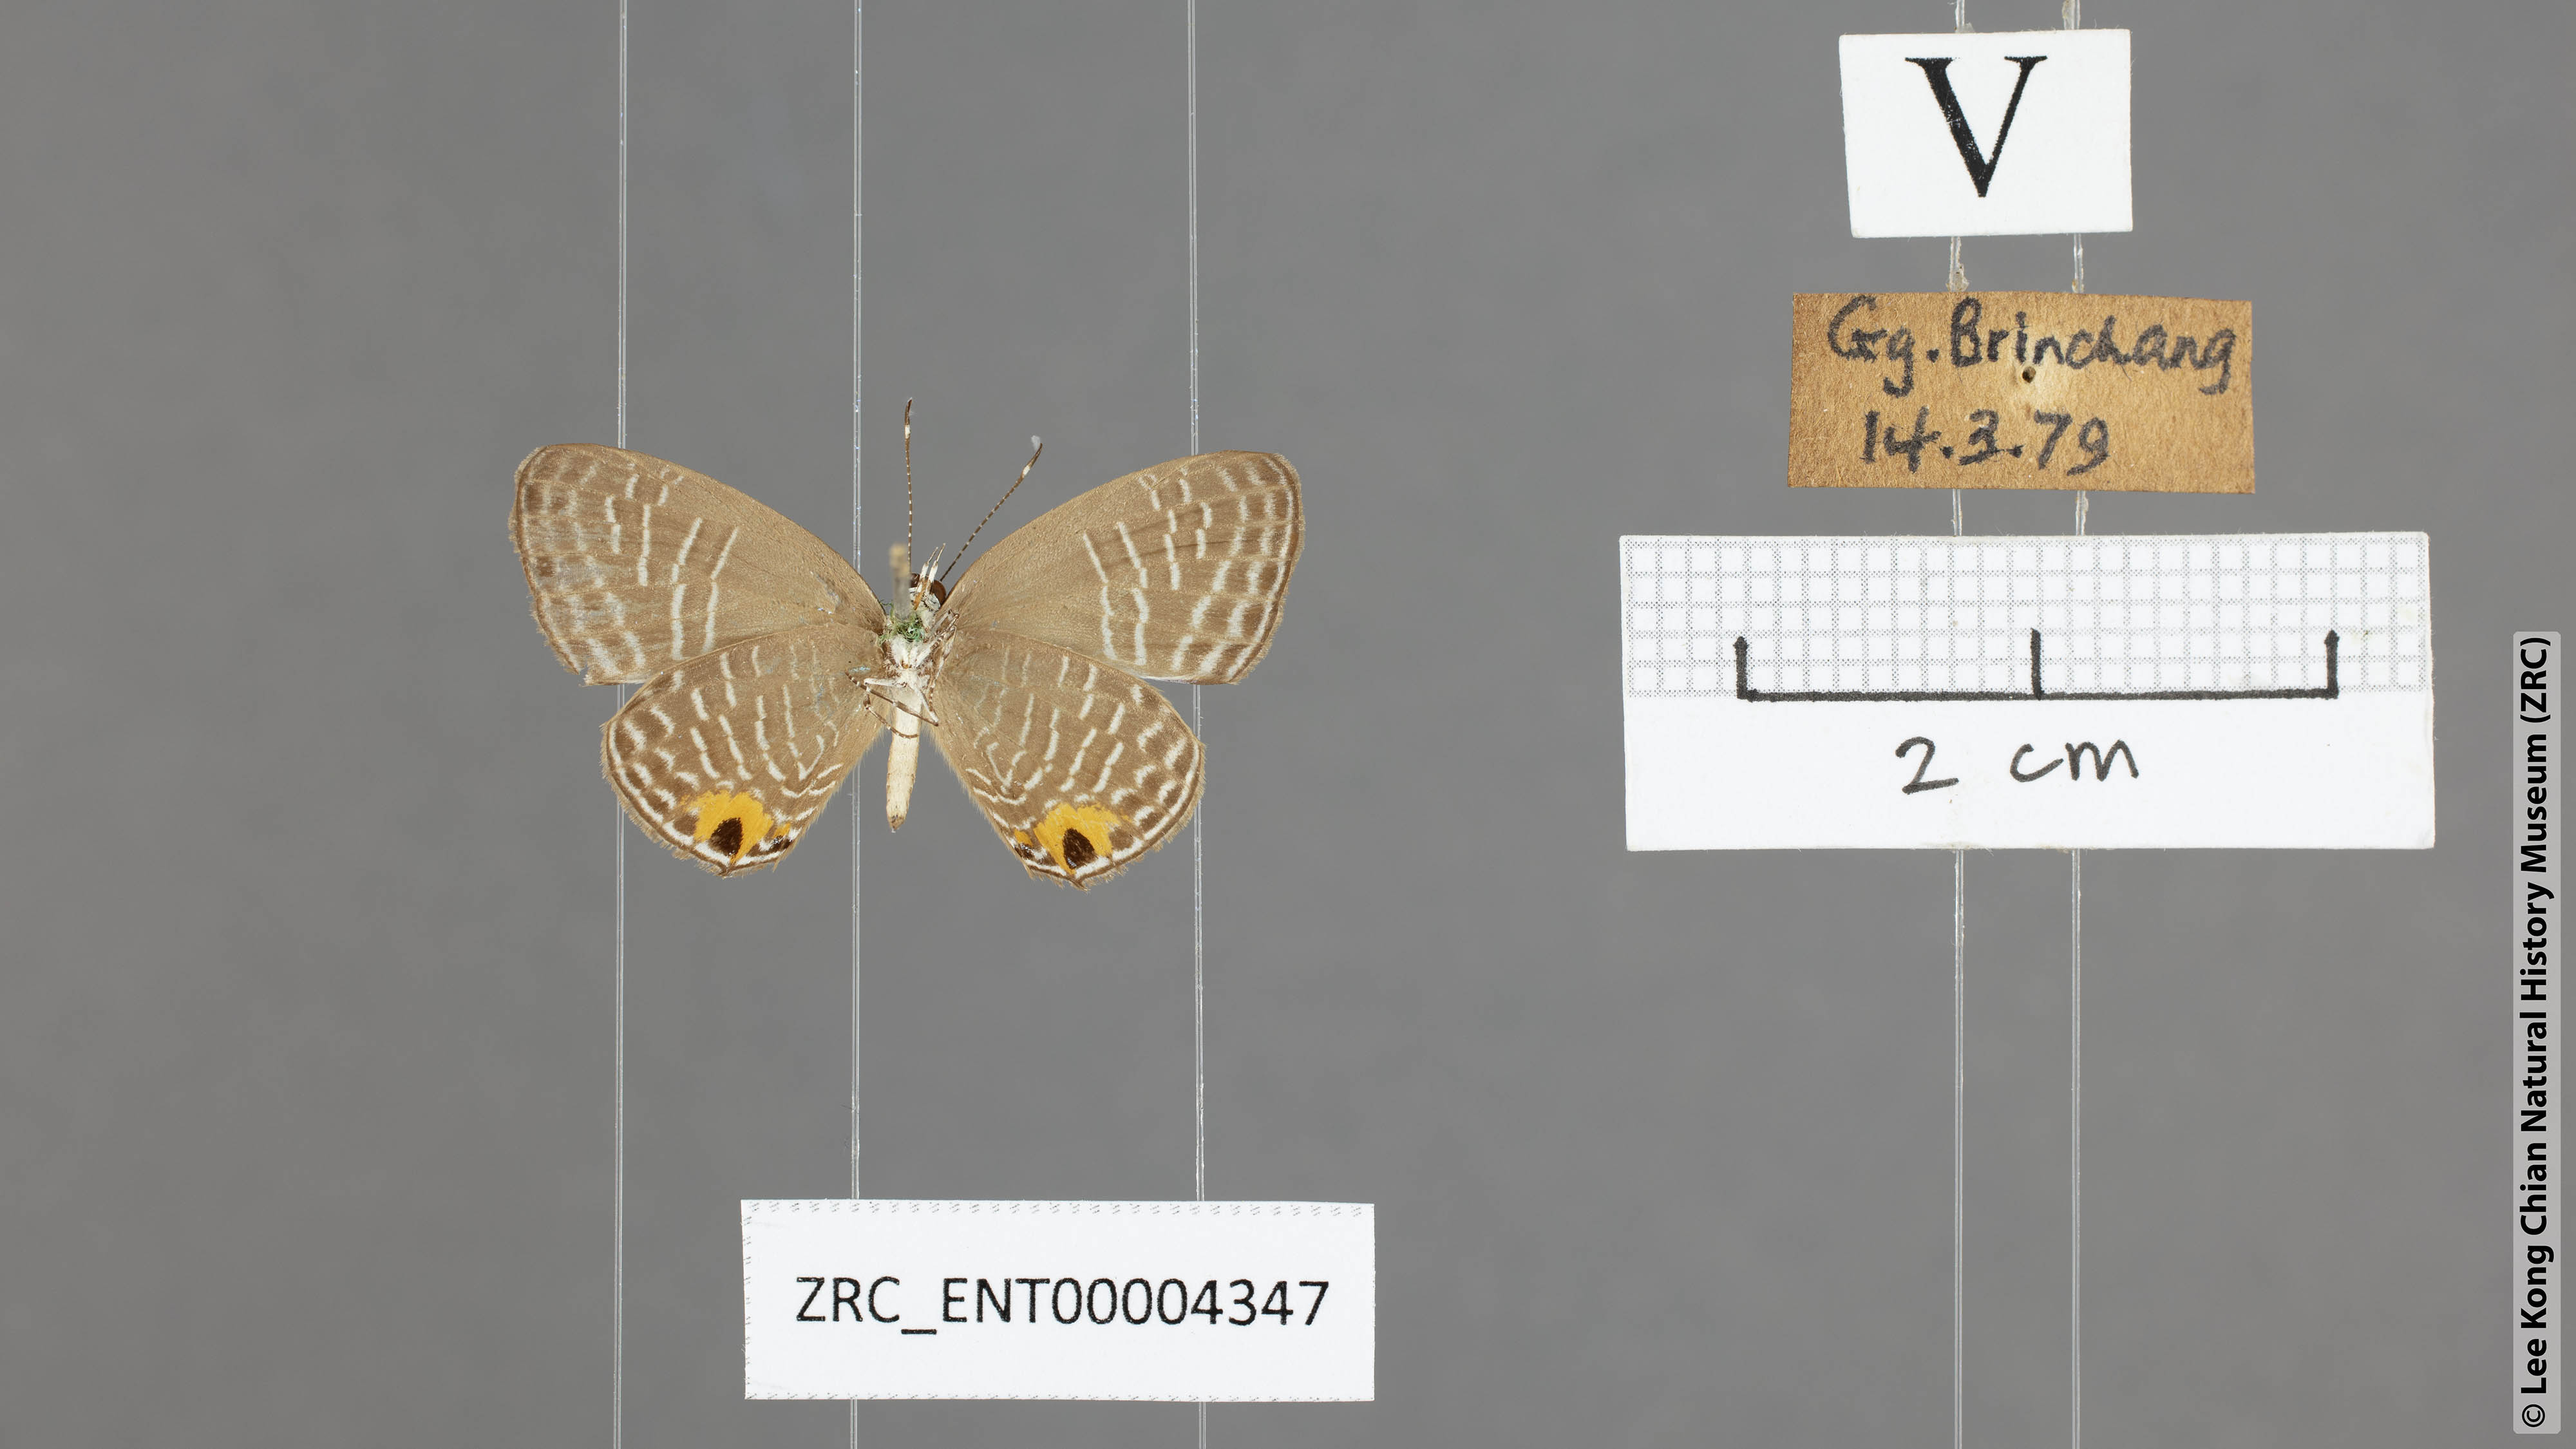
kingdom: Animalia
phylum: Arthropoda
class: Insecta
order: Lepidoptera
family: Lycaenidae
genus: Jamides
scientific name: Jamides talinga
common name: Lesser cerulean
